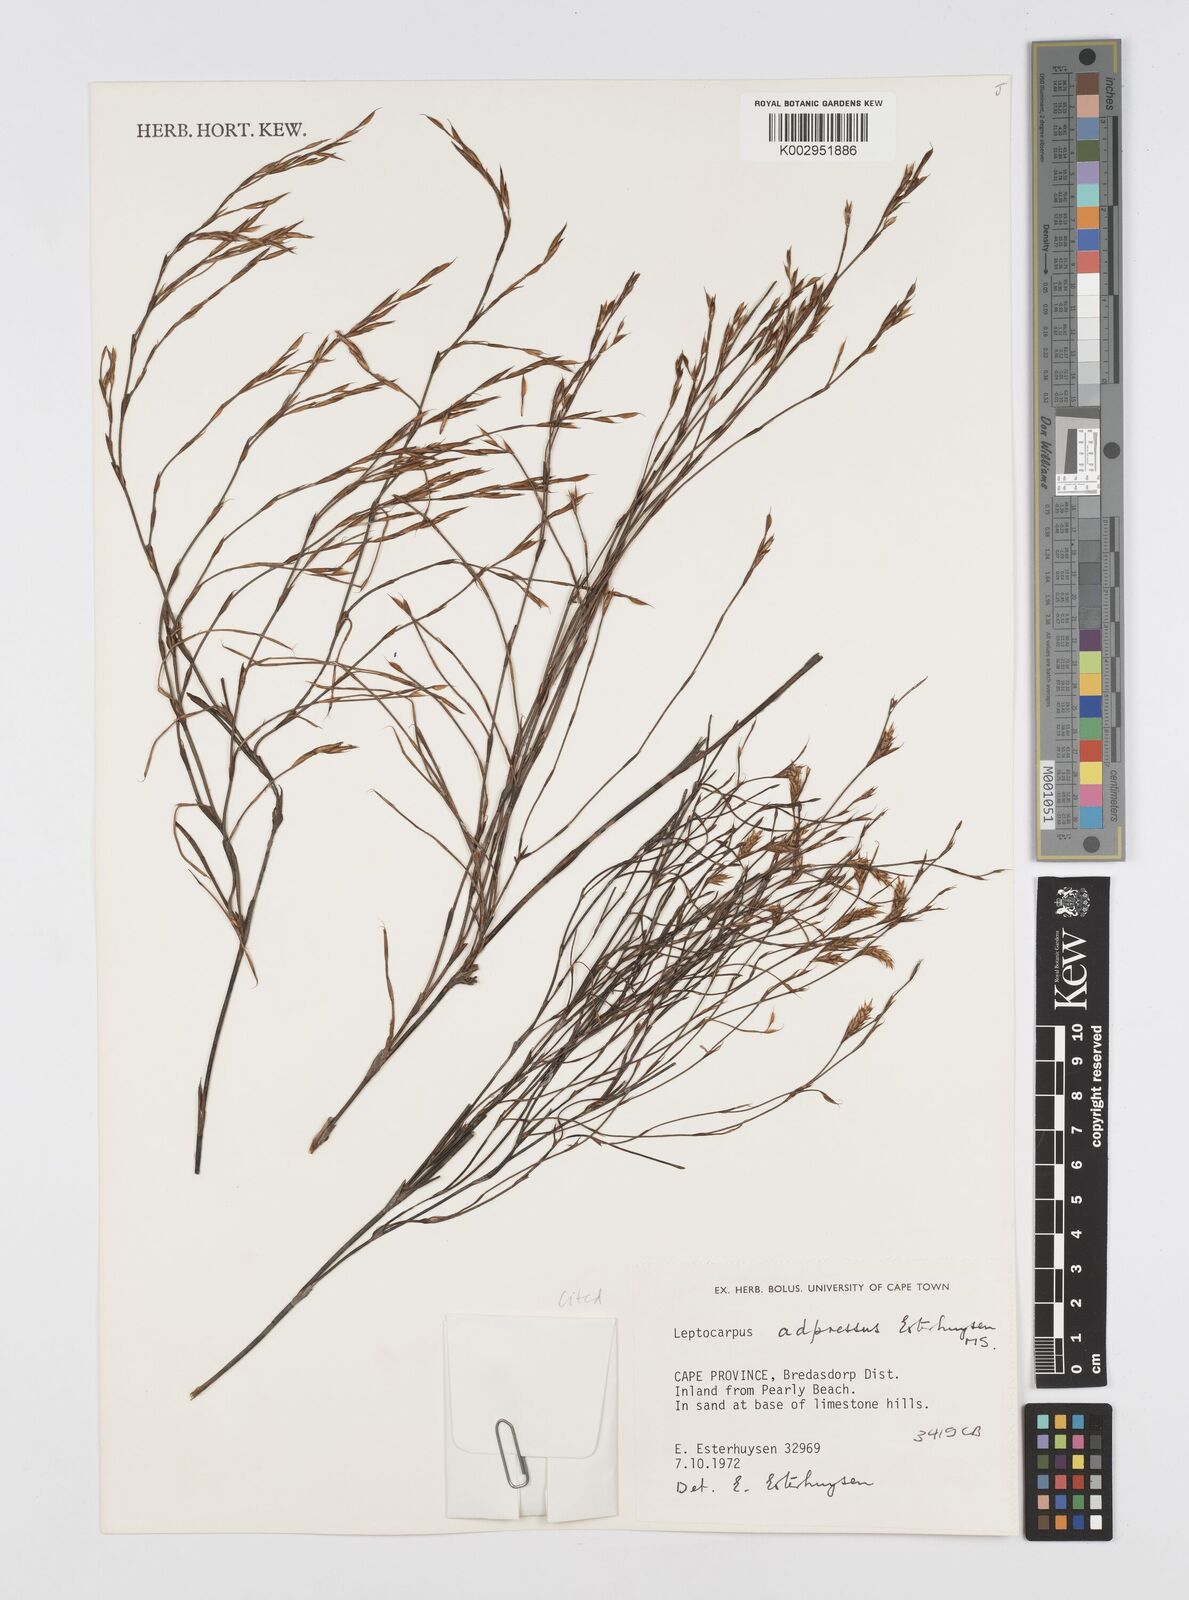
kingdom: Plantae
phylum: Tracheophyta
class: Liliopsida
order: Poales
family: Restionaceae
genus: Restio
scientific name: Restio adpressus
